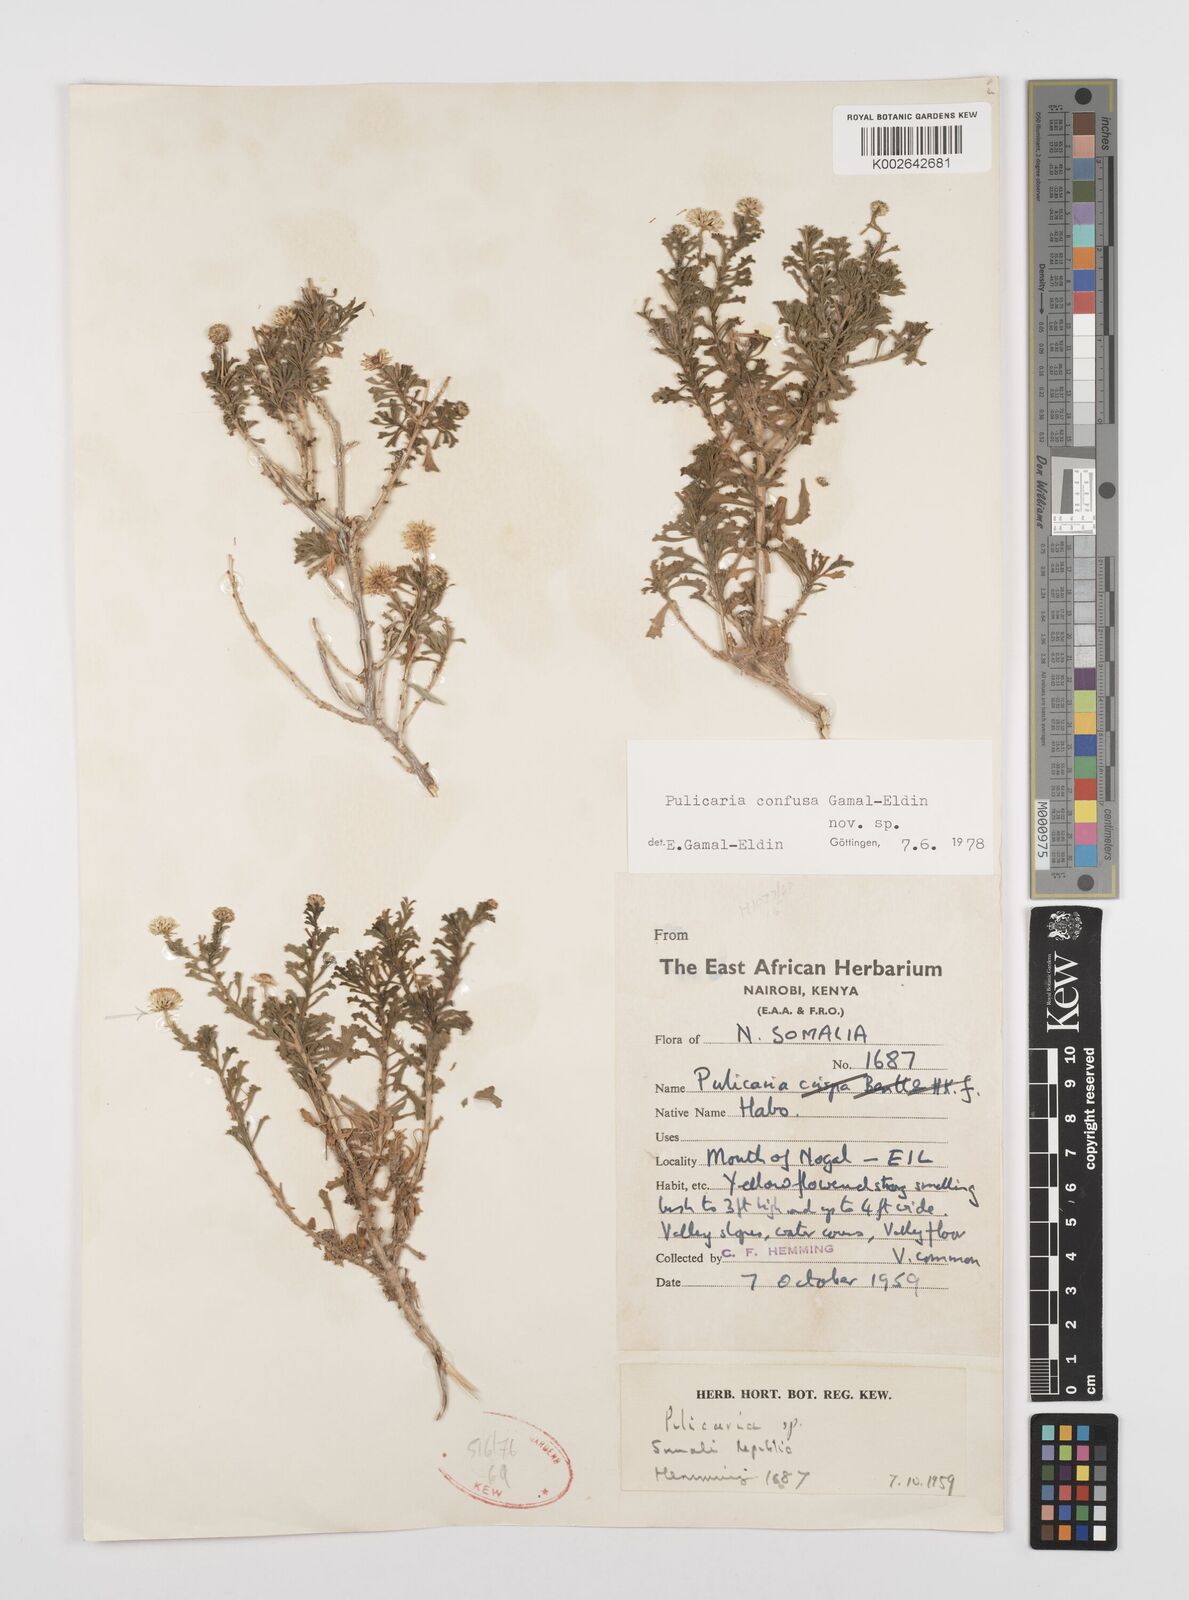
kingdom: Plantae
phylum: Tracheophyta
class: Magnoliopsida
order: Asterales
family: Asteraceae
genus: Pulicaria
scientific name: Pulicaria confusa
